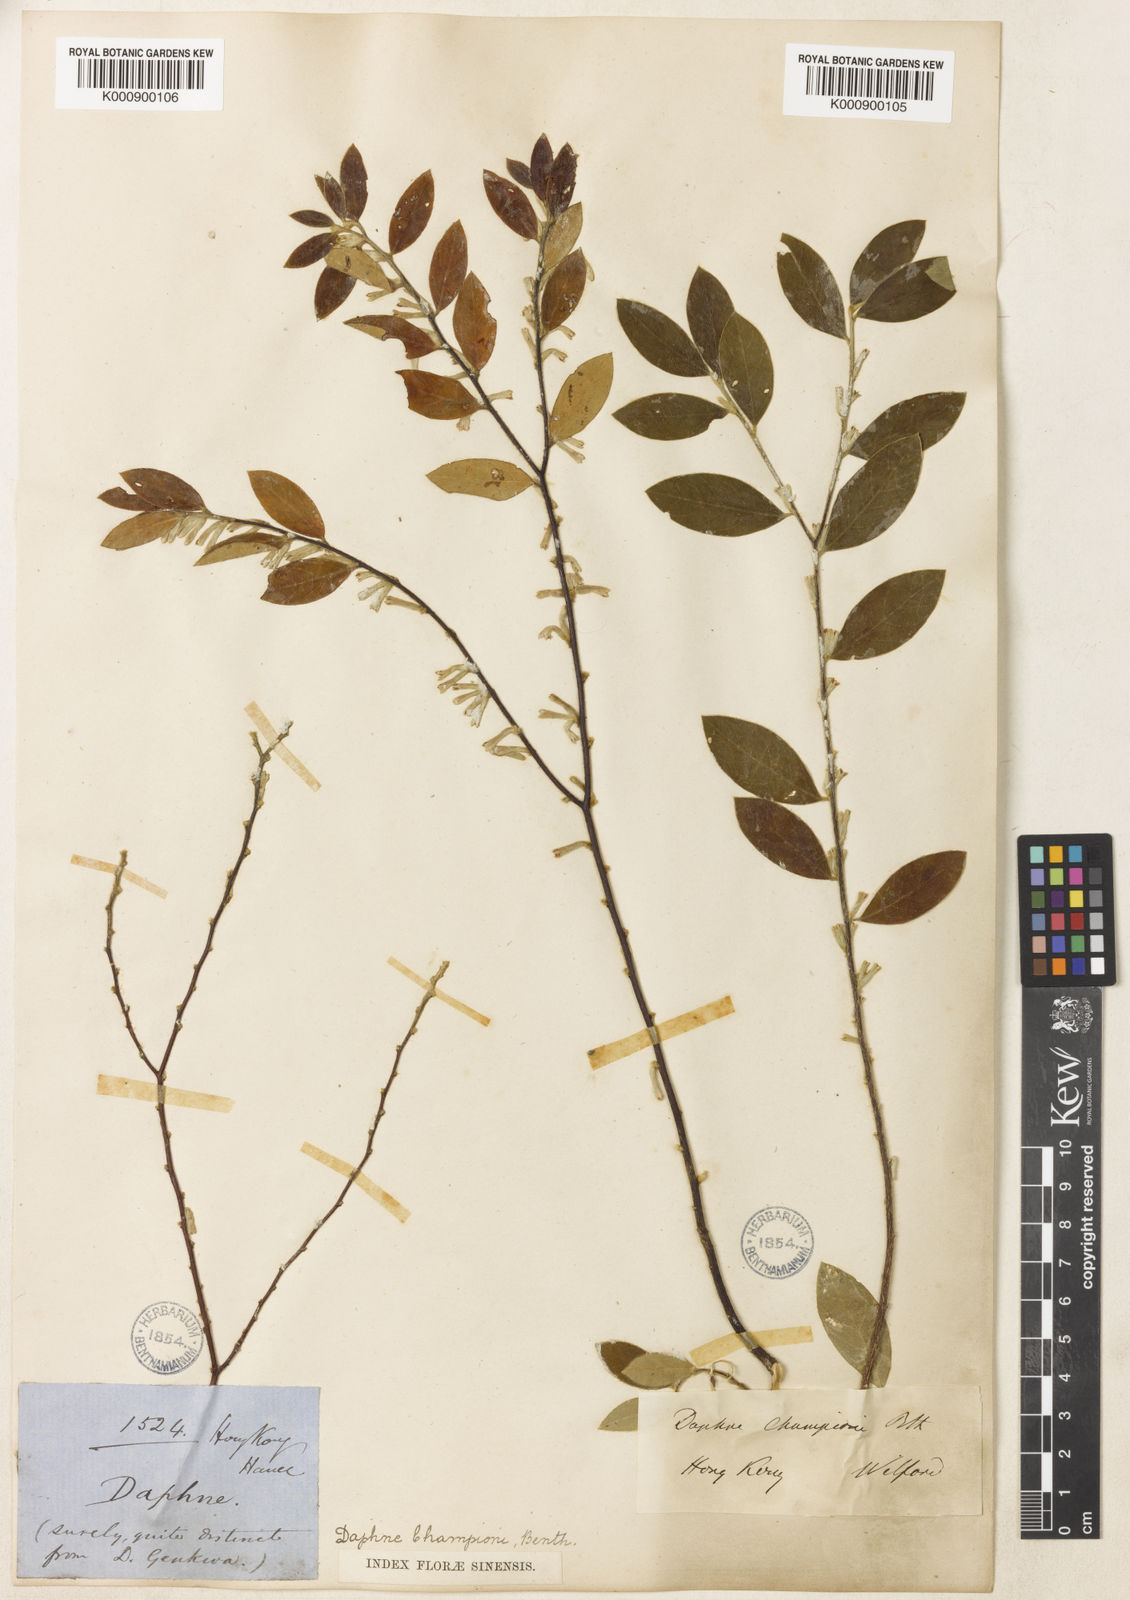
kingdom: Plantae
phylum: Tracheophyta
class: Magnoliopsida
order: Malvales
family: Thymelaeaceae
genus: Daphne
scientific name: Daphne championii
